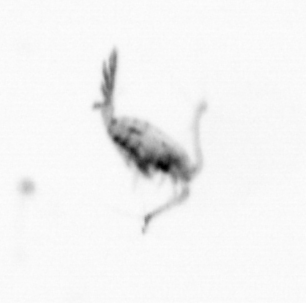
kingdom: Animalia
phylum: Arthropoda
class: Copepoda
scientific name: Copepoda
